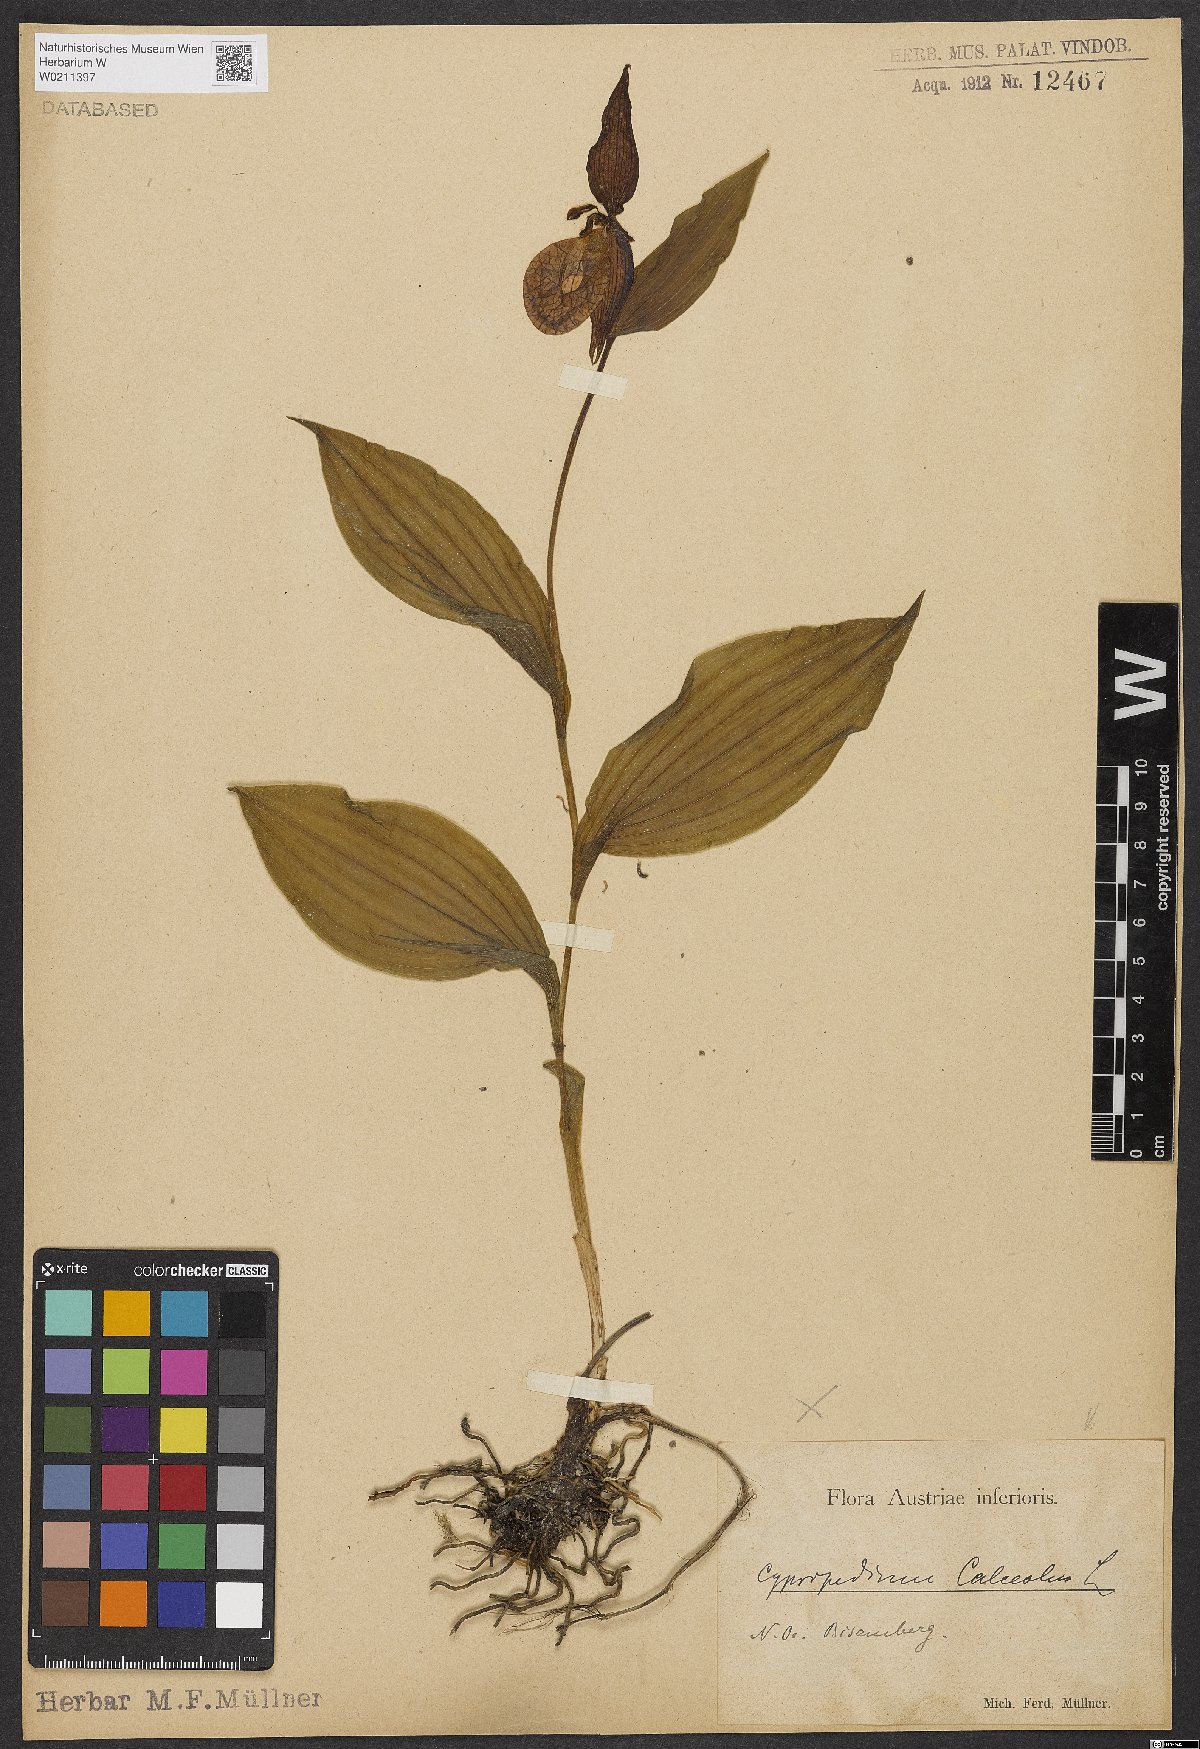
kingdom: Plantae
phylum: Tracheophyta
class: Liliopsida
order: Asparagales
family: Orchidaceae
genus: Cypripedium
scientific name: Cypripedium calceolus
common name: Lady's-slipper
